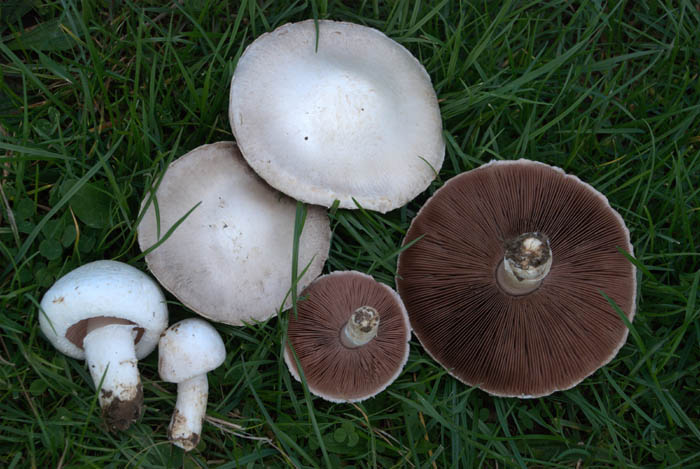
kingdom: Fungi
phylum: Basidiomycota
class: Agaricomycetes
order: Agaricales
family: Agaricaceae
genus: Agaricus
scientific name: Agaricus campestris
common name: mark-champignon
